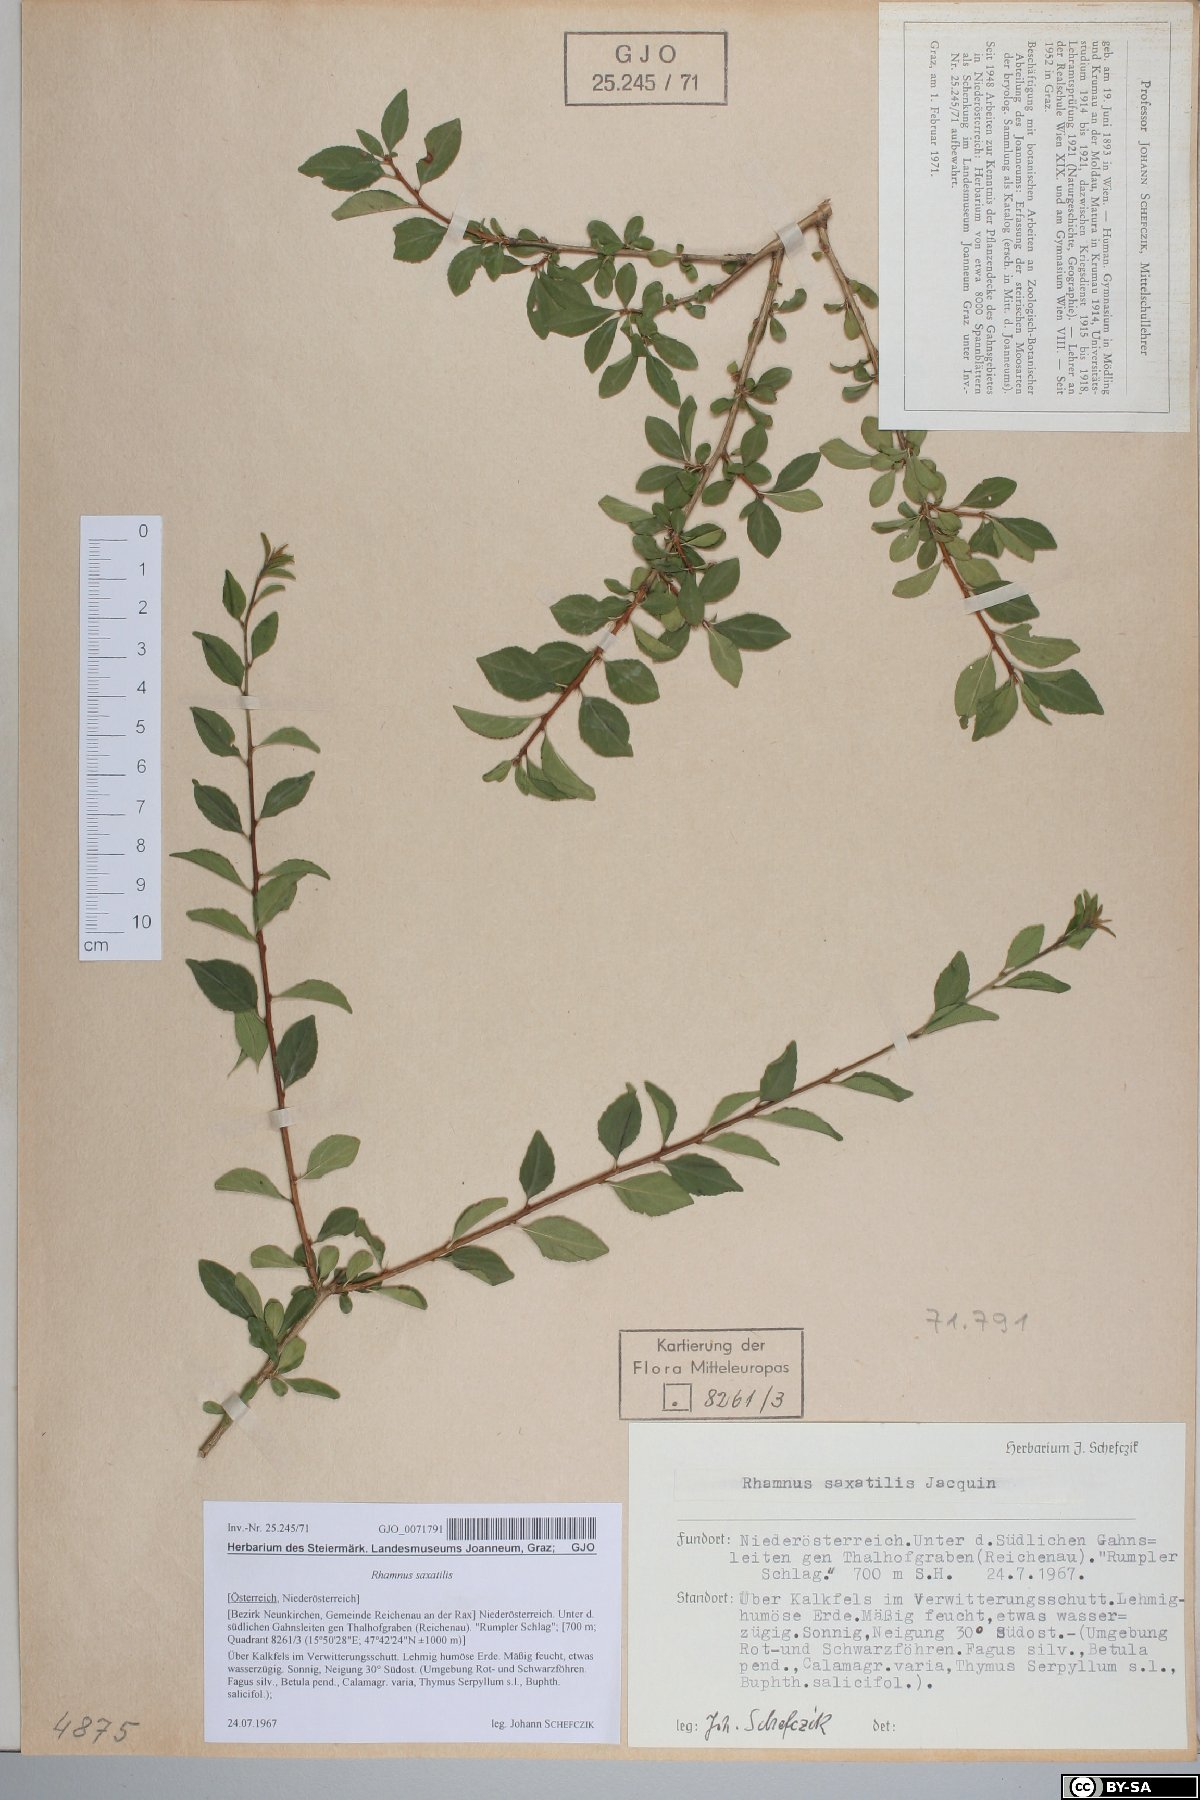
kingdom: Plantae
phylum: Tracheophyta
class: Magnoliopsida
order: Rosales
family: Rhamnaceae
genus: Rhamnus
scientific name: Rhamnus saxatilis
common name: Rock buckthorn
